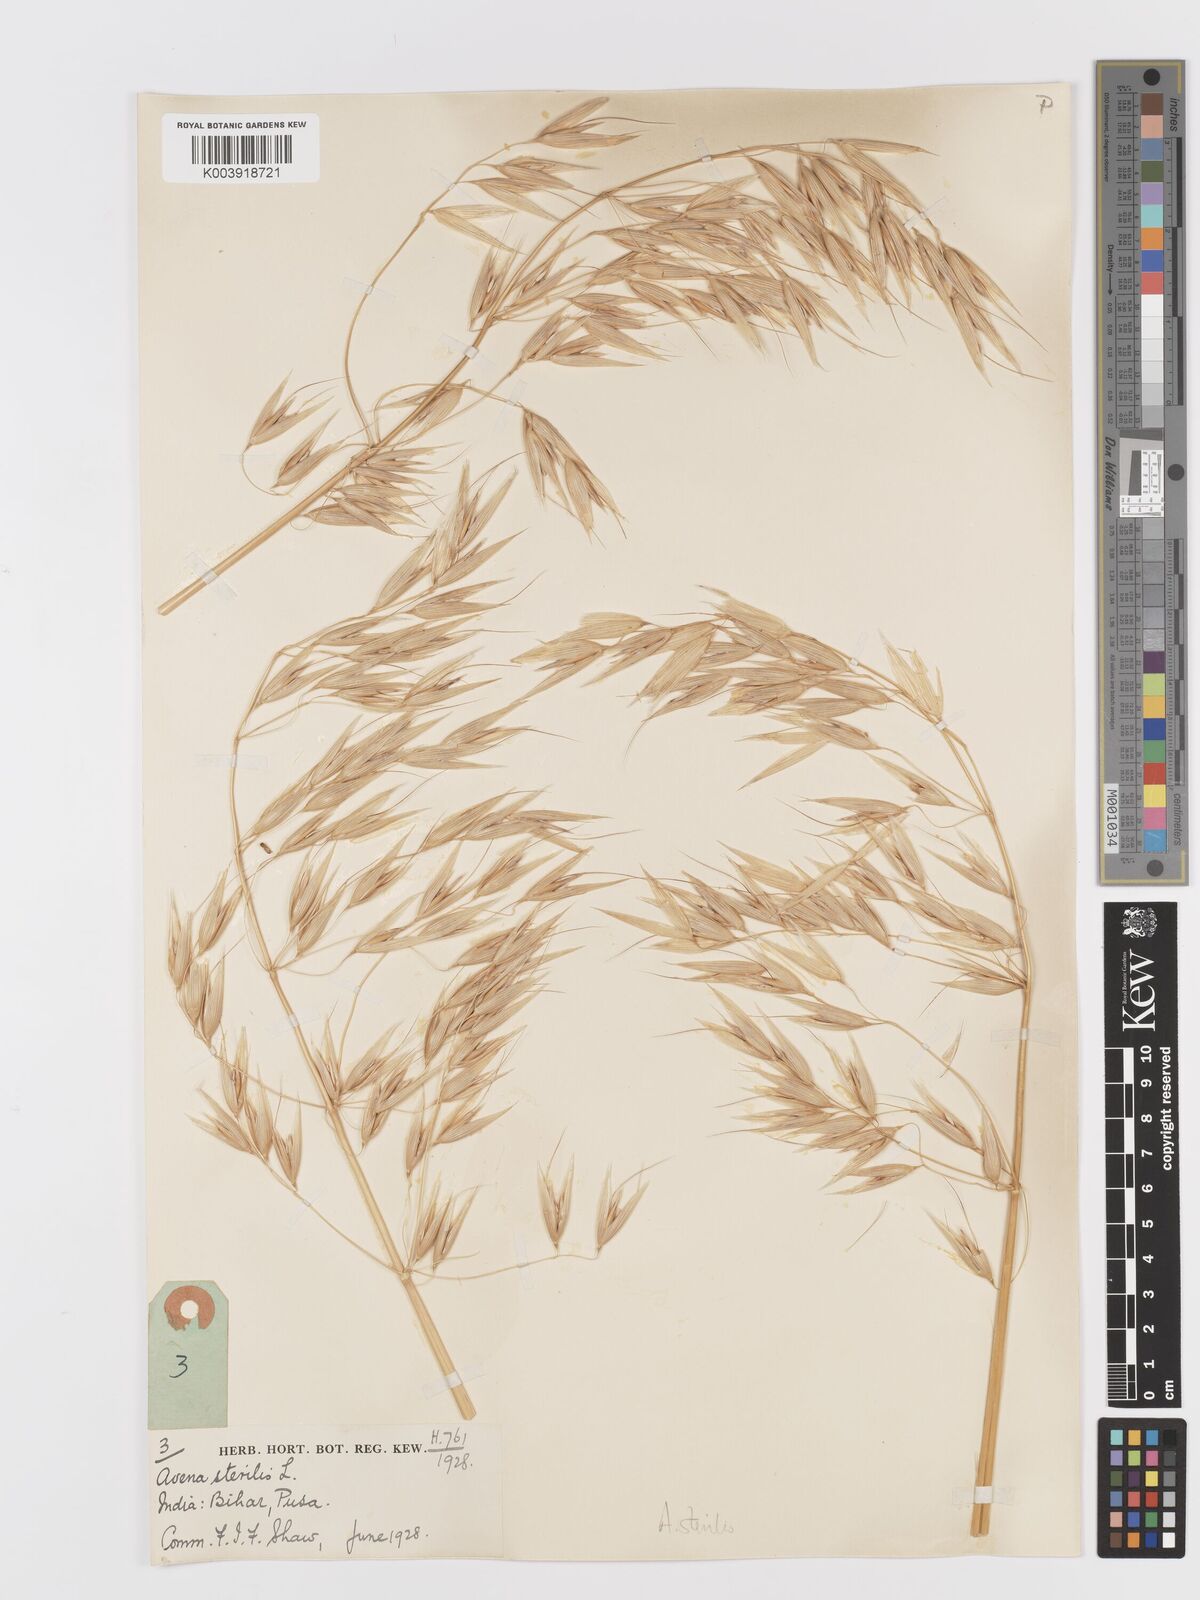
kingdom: Plantae
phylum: Tracheophyta
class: Liliopsida
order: Poales
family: Poaceae
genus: Avena
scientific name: Avena sterilis
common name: Animated oat
